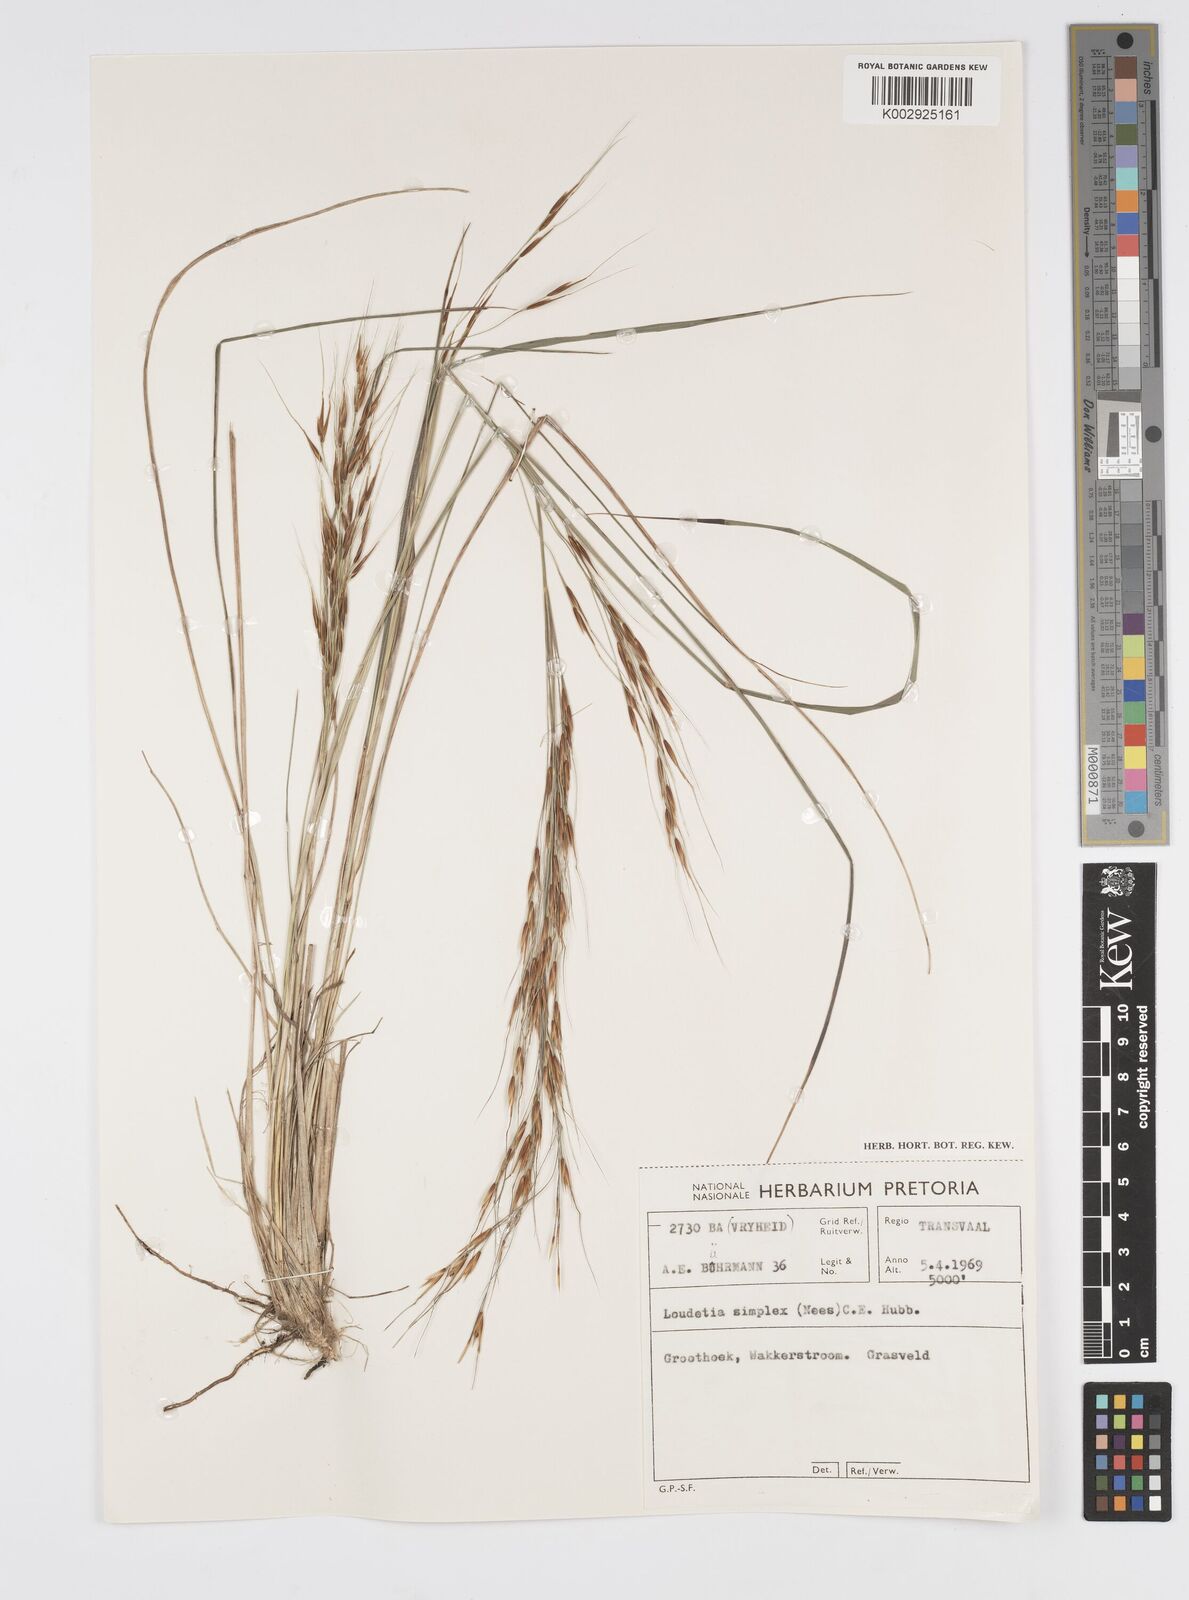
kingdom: Plantae
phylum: Tracheophyta
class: Liliopsida
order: Poales
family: Poaceae
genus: Loudetia
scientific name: Loudetia simplex
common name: Common russet grass
